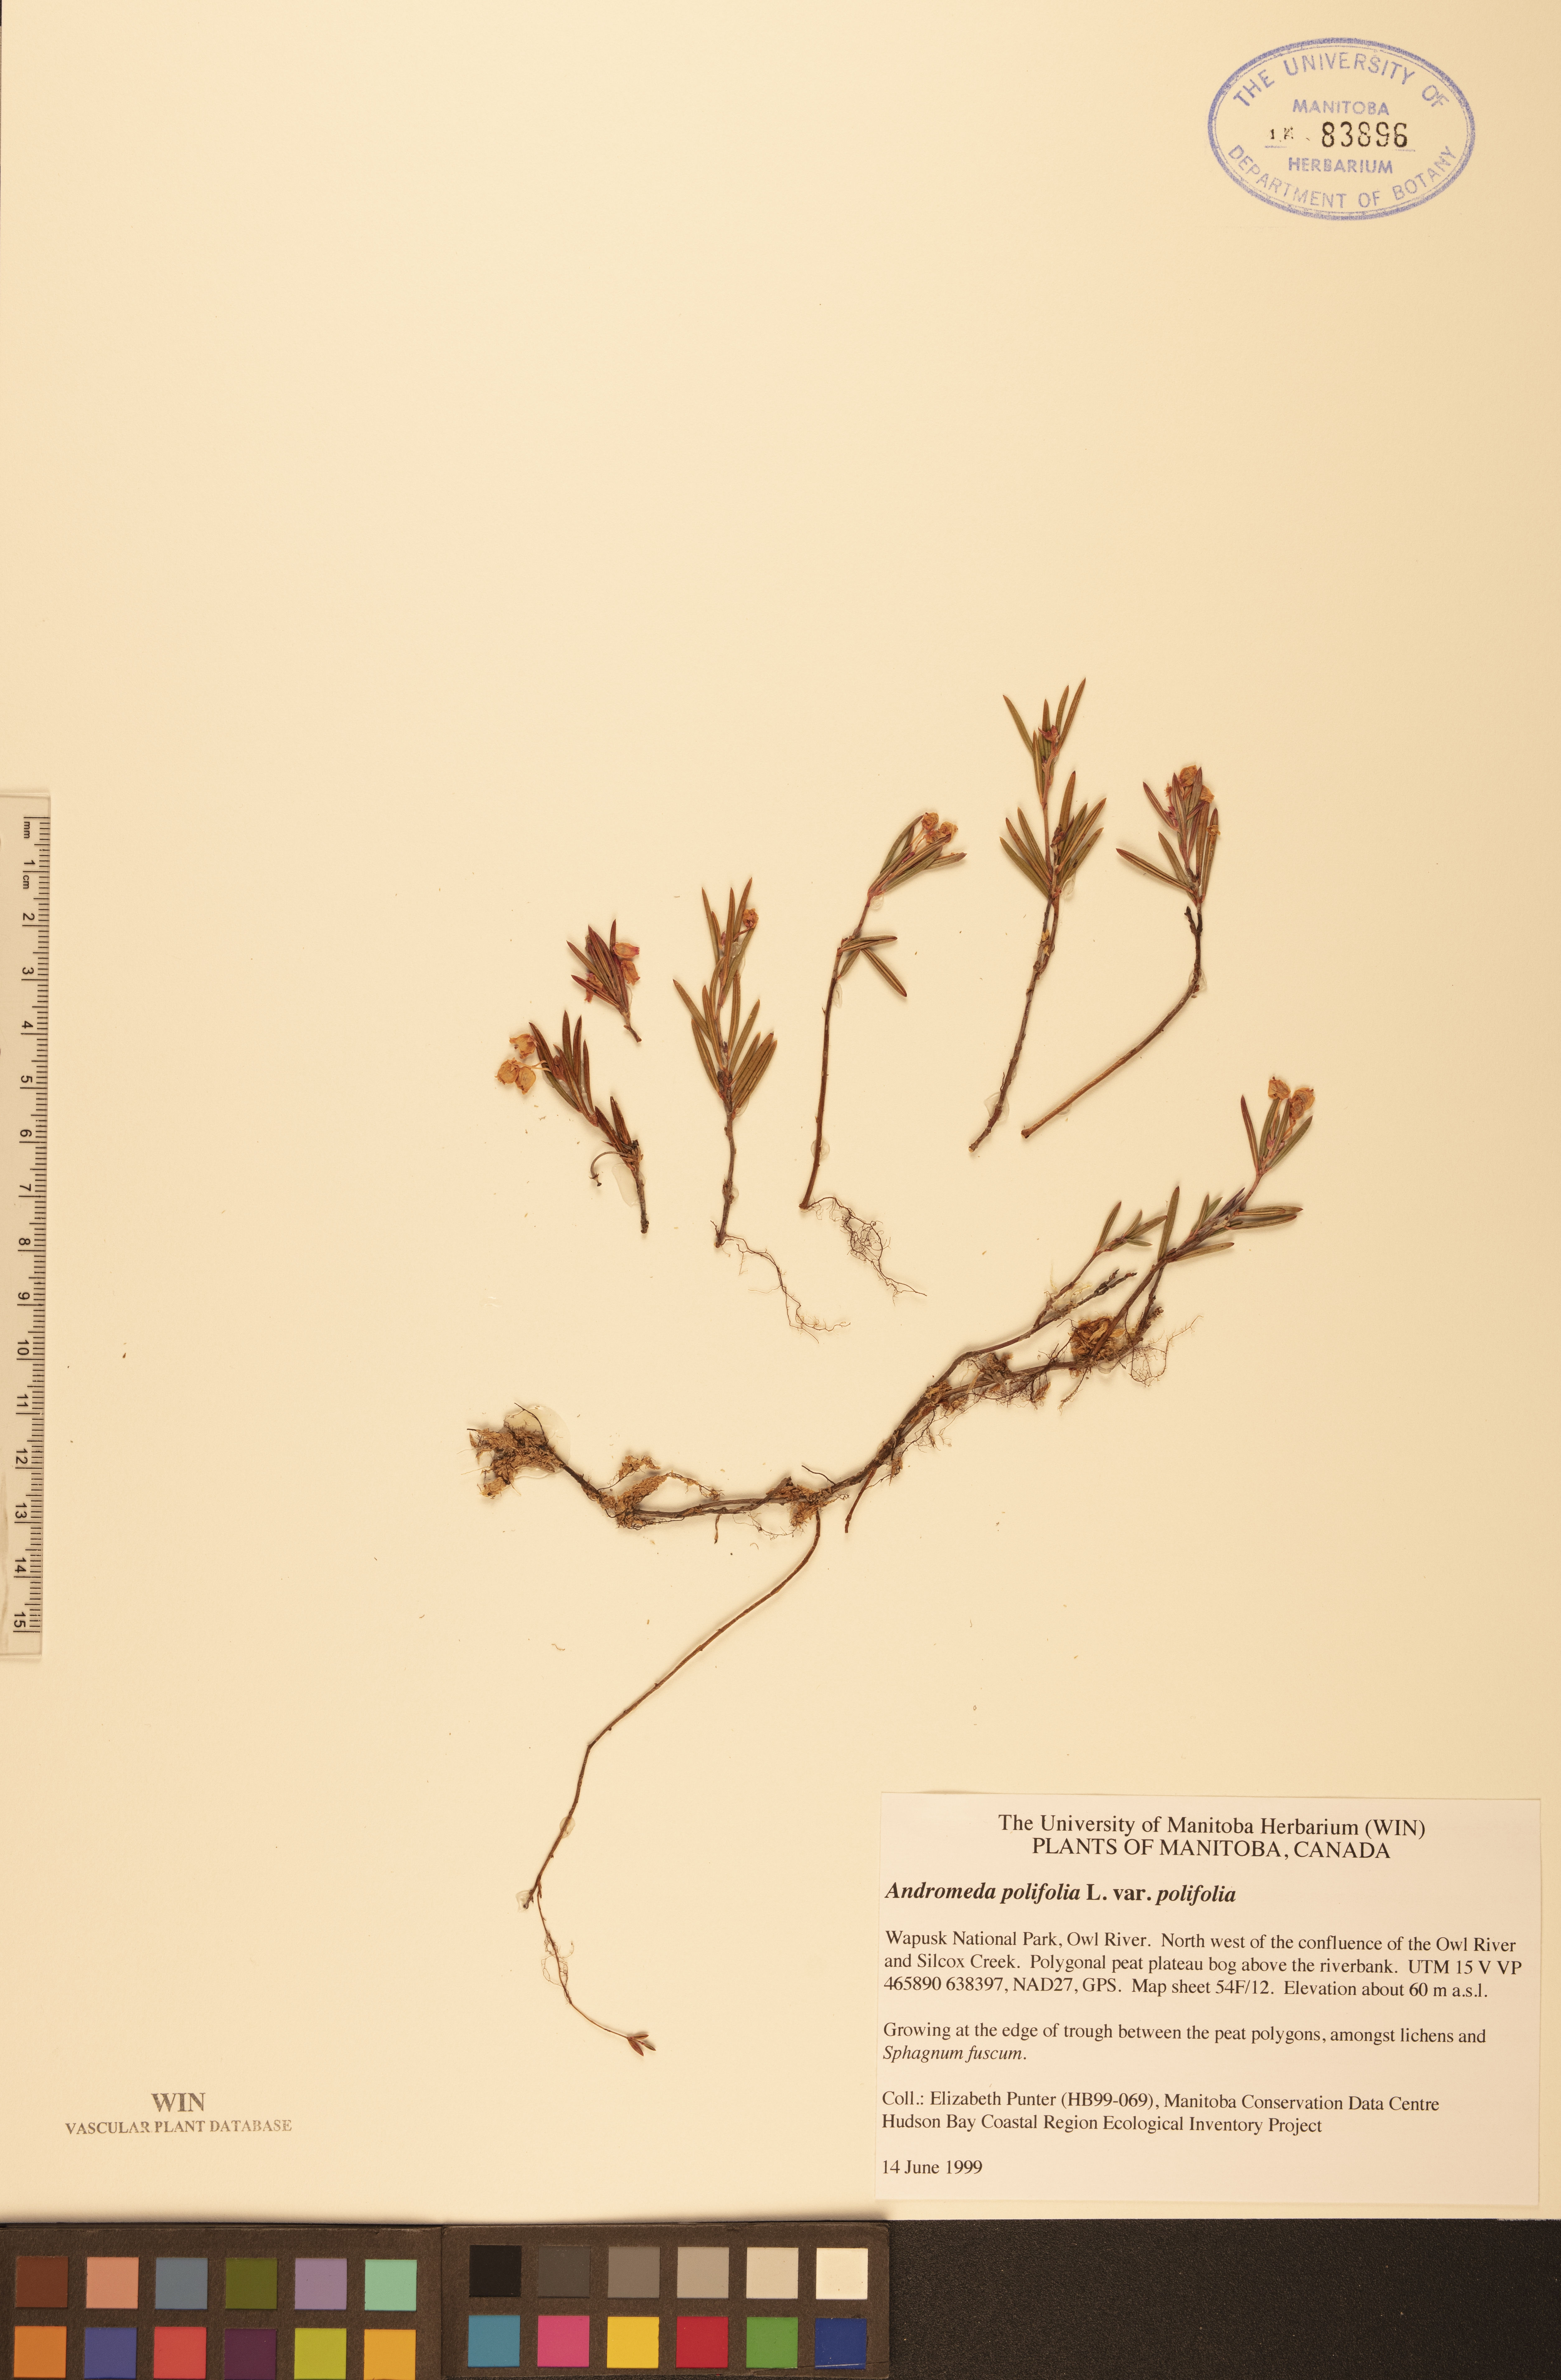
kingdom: Plantae
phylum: Tracheophyta
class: Magnoliopsida
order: Ericales
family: Ericaceae
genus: Andromeda
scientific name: Andromeda polifolia
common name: Bog-rosemary
